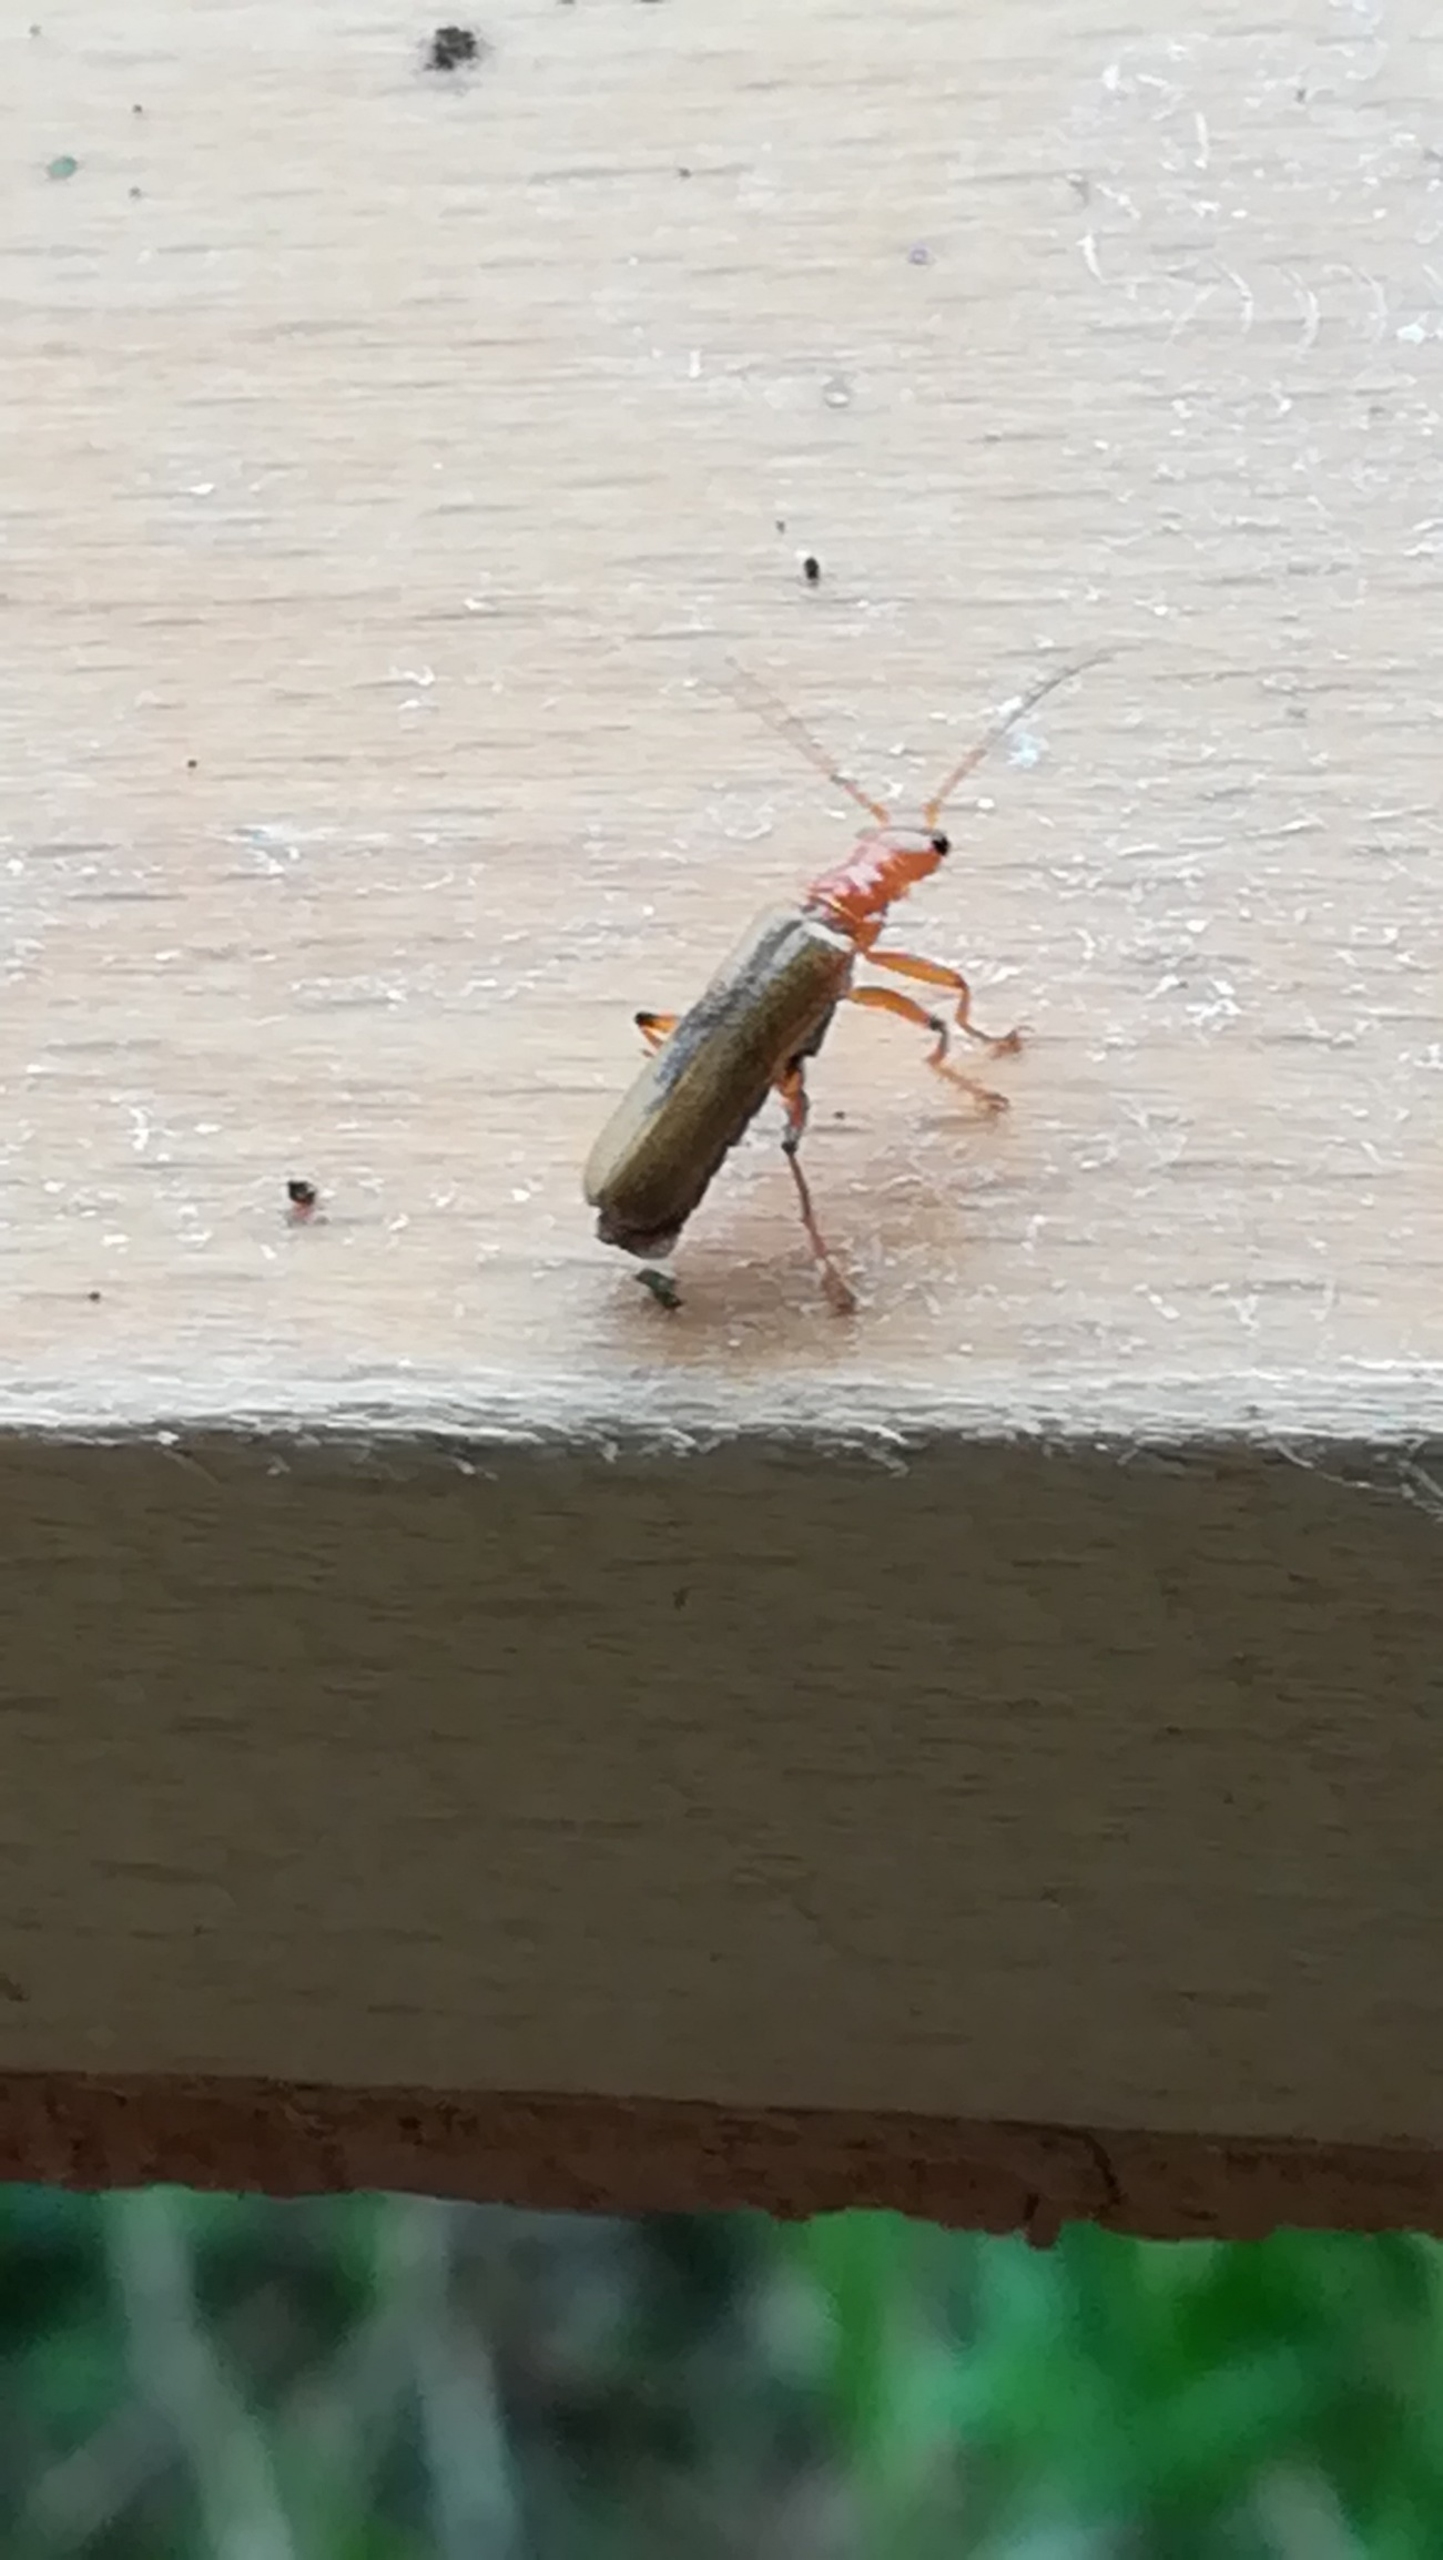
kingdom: Animalia
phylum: Arthropoda
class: Insecta
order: Coleoptera
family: Cantharidae
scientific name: Cantharidae
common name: Blødvinger
